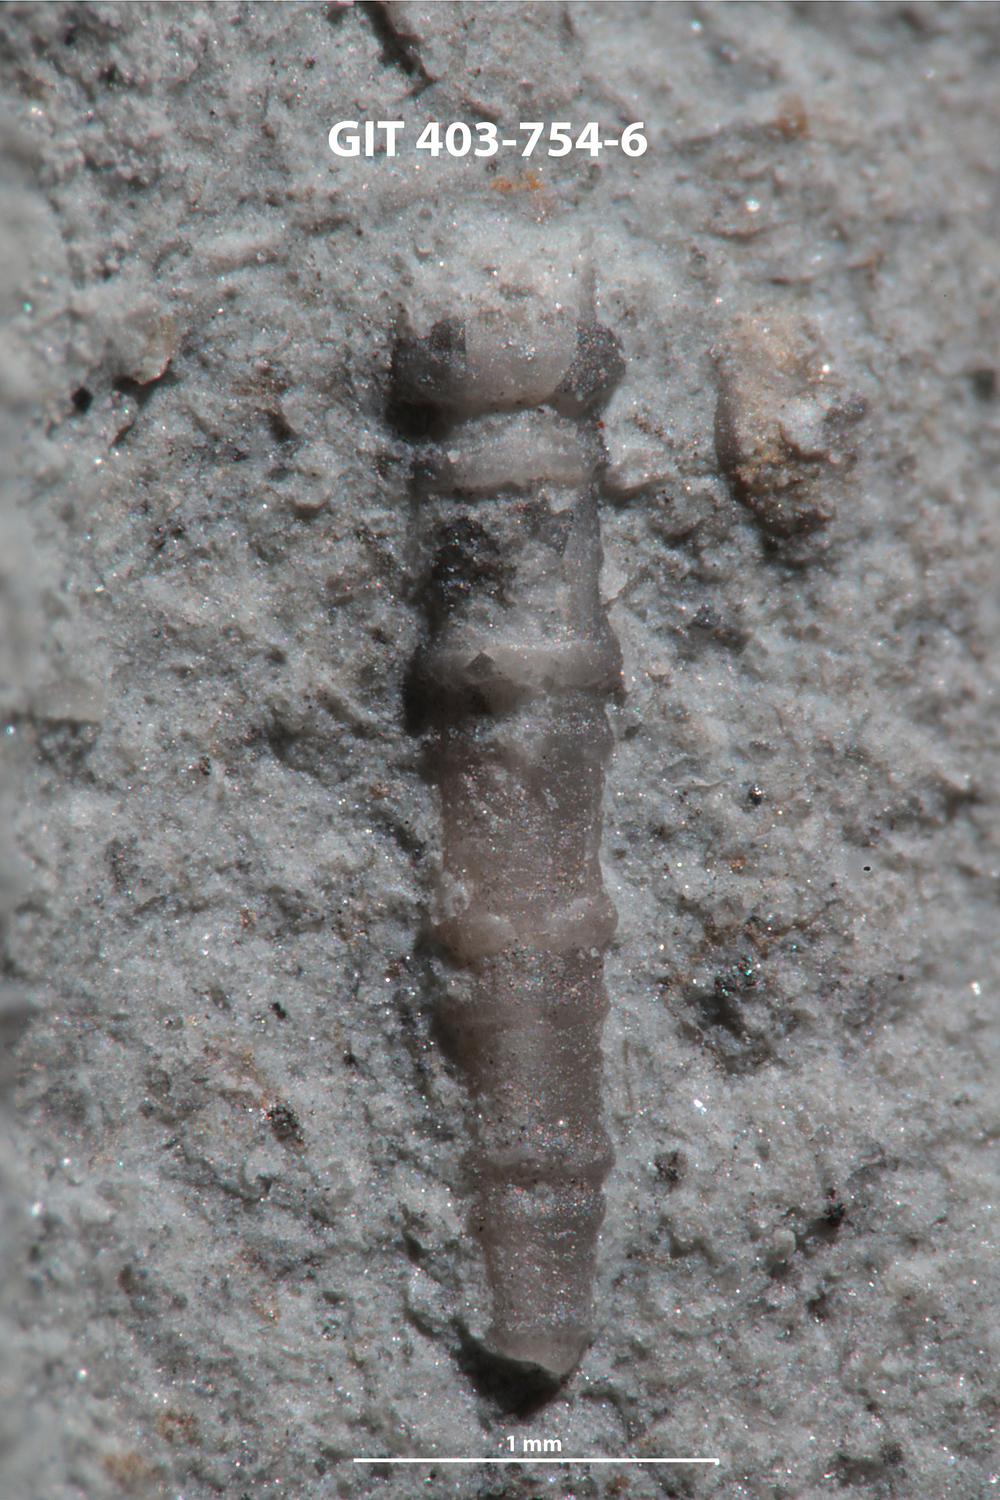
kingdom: Animalia
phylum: Mollusca
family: Turmalitidae
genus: Lonchidium
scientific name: Lonchidium
